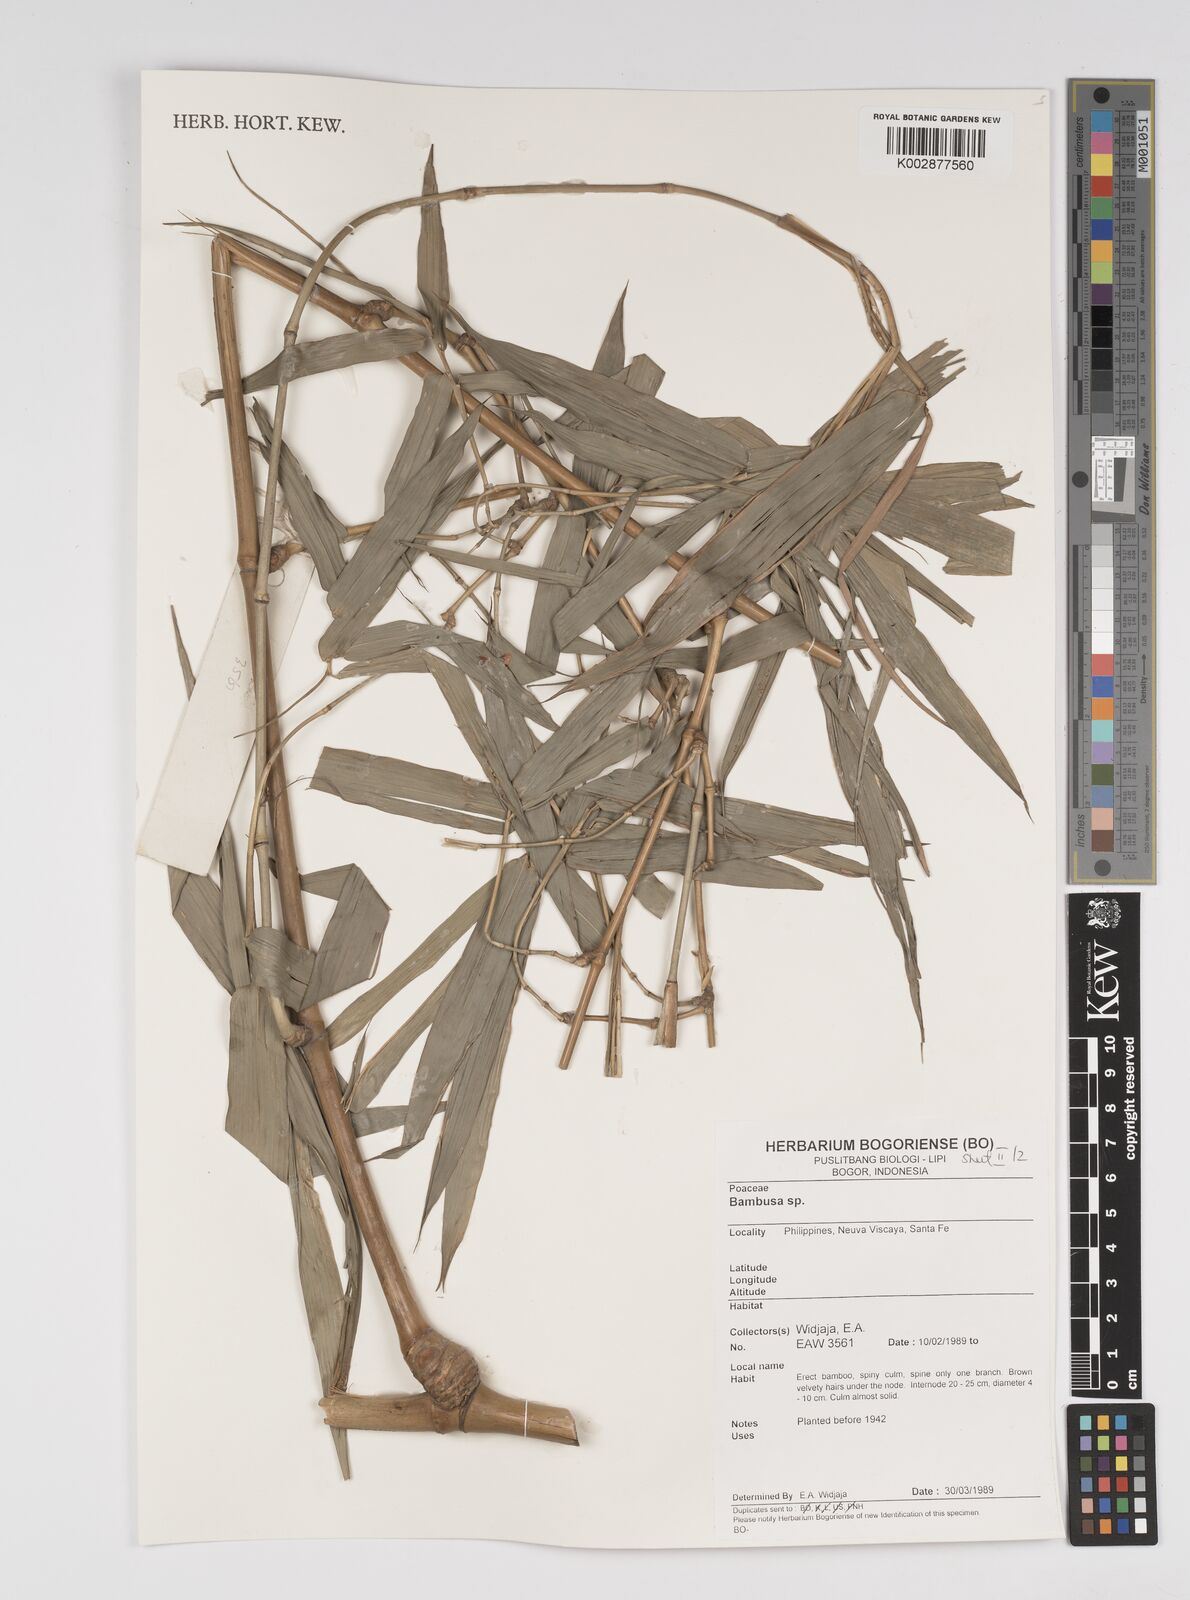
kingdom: Plantae
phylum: Tracheophyta
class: Liliopsida
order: Poales
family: Poaceae
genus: Bambusa
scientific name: Bambusa
